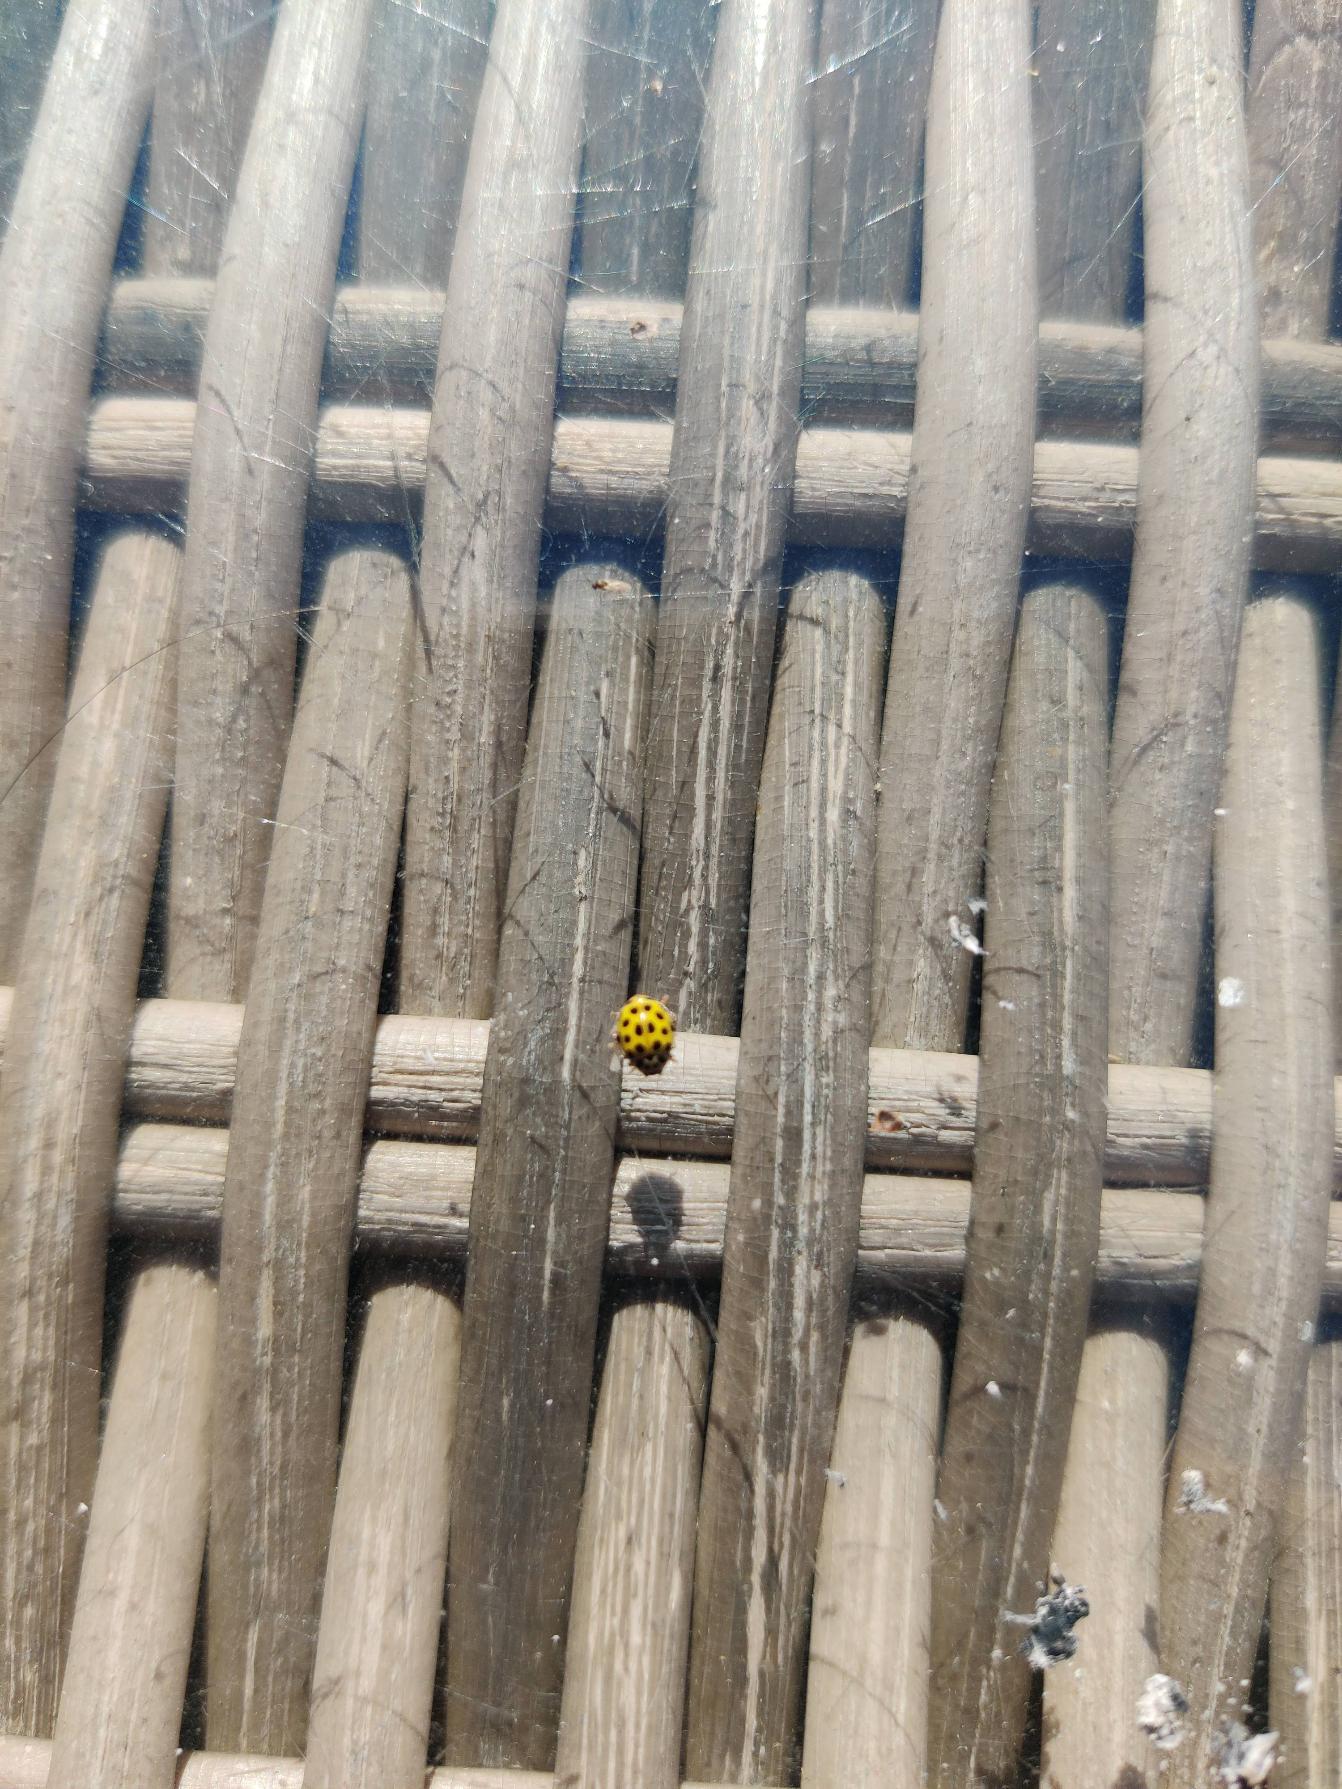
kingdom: Animalia
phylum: Arthropoda
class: Insecta
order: Coleoptera
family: Coccinellidae
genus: Psyllobora
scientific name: Psyllobora vigintiduopunctata
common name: Toogtyveplettet mariehøne
